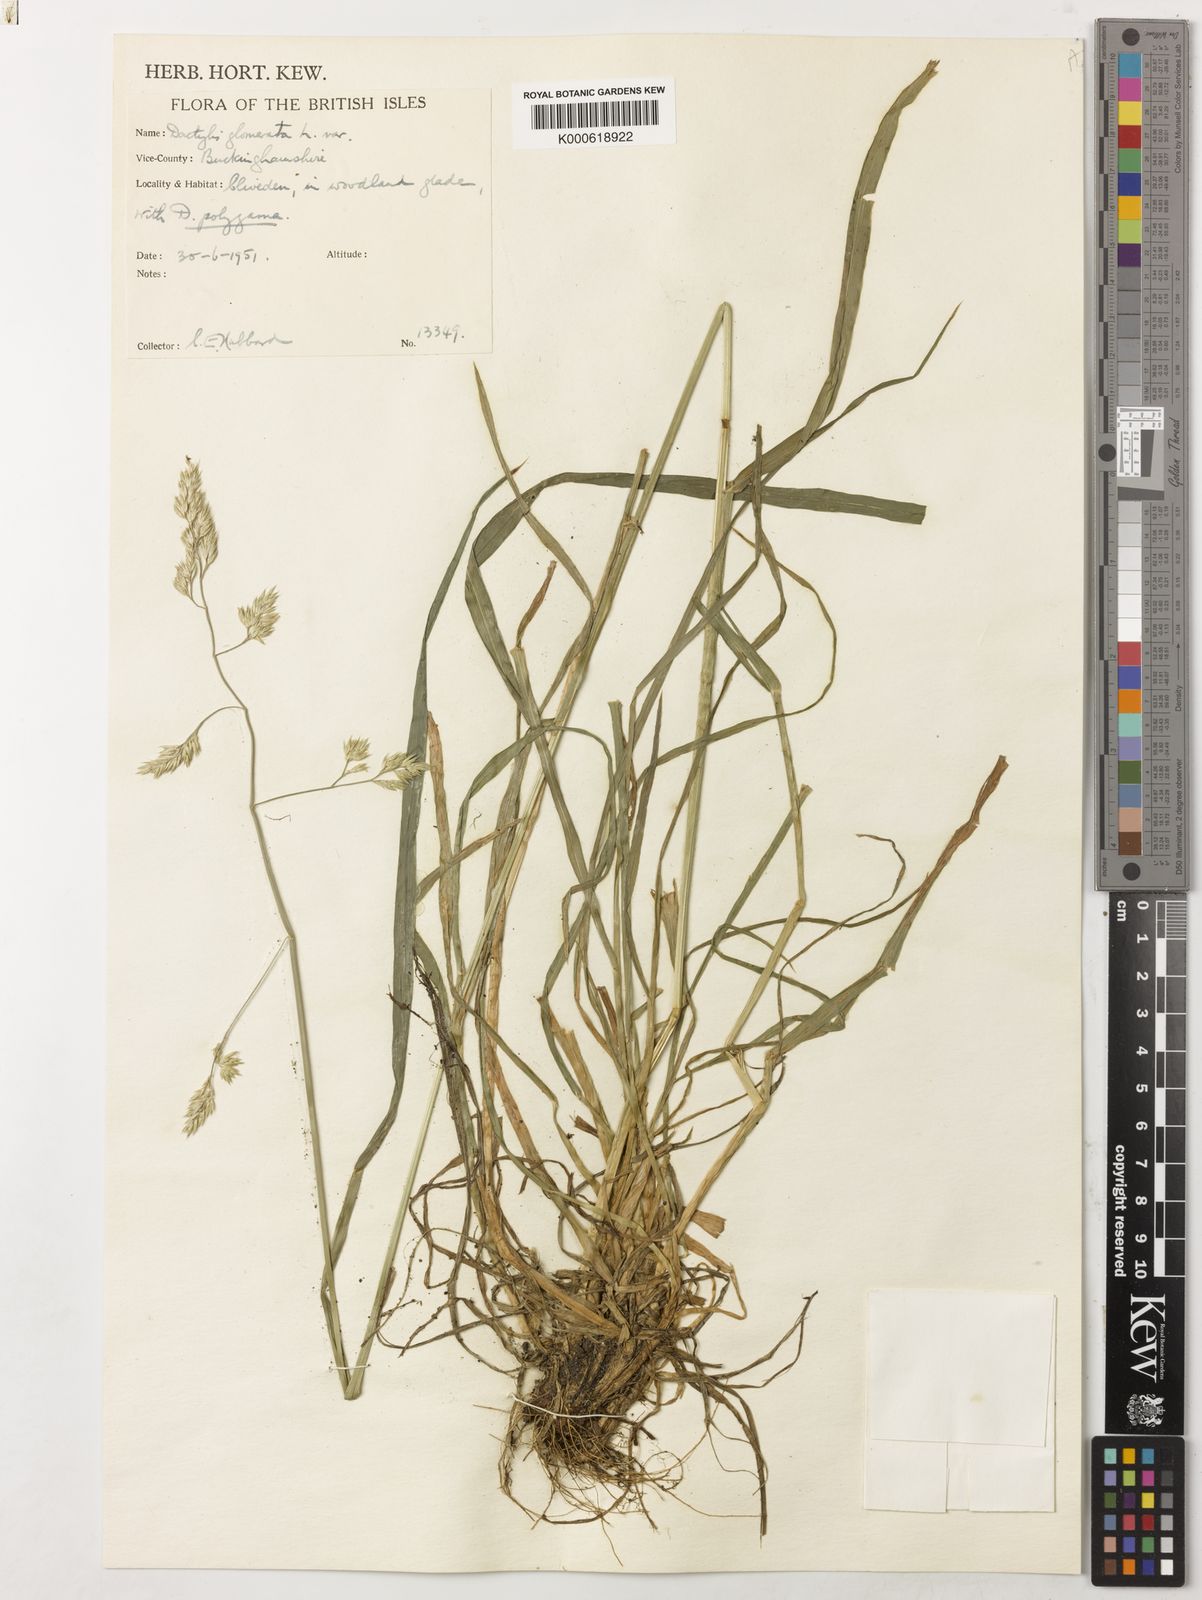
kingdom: Plantae
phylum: Tracheophyta
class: Liliopsida
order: Poales
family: Poaceae
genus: Dactylis
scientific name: Dactylis glomerata
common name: Orchardgrass
